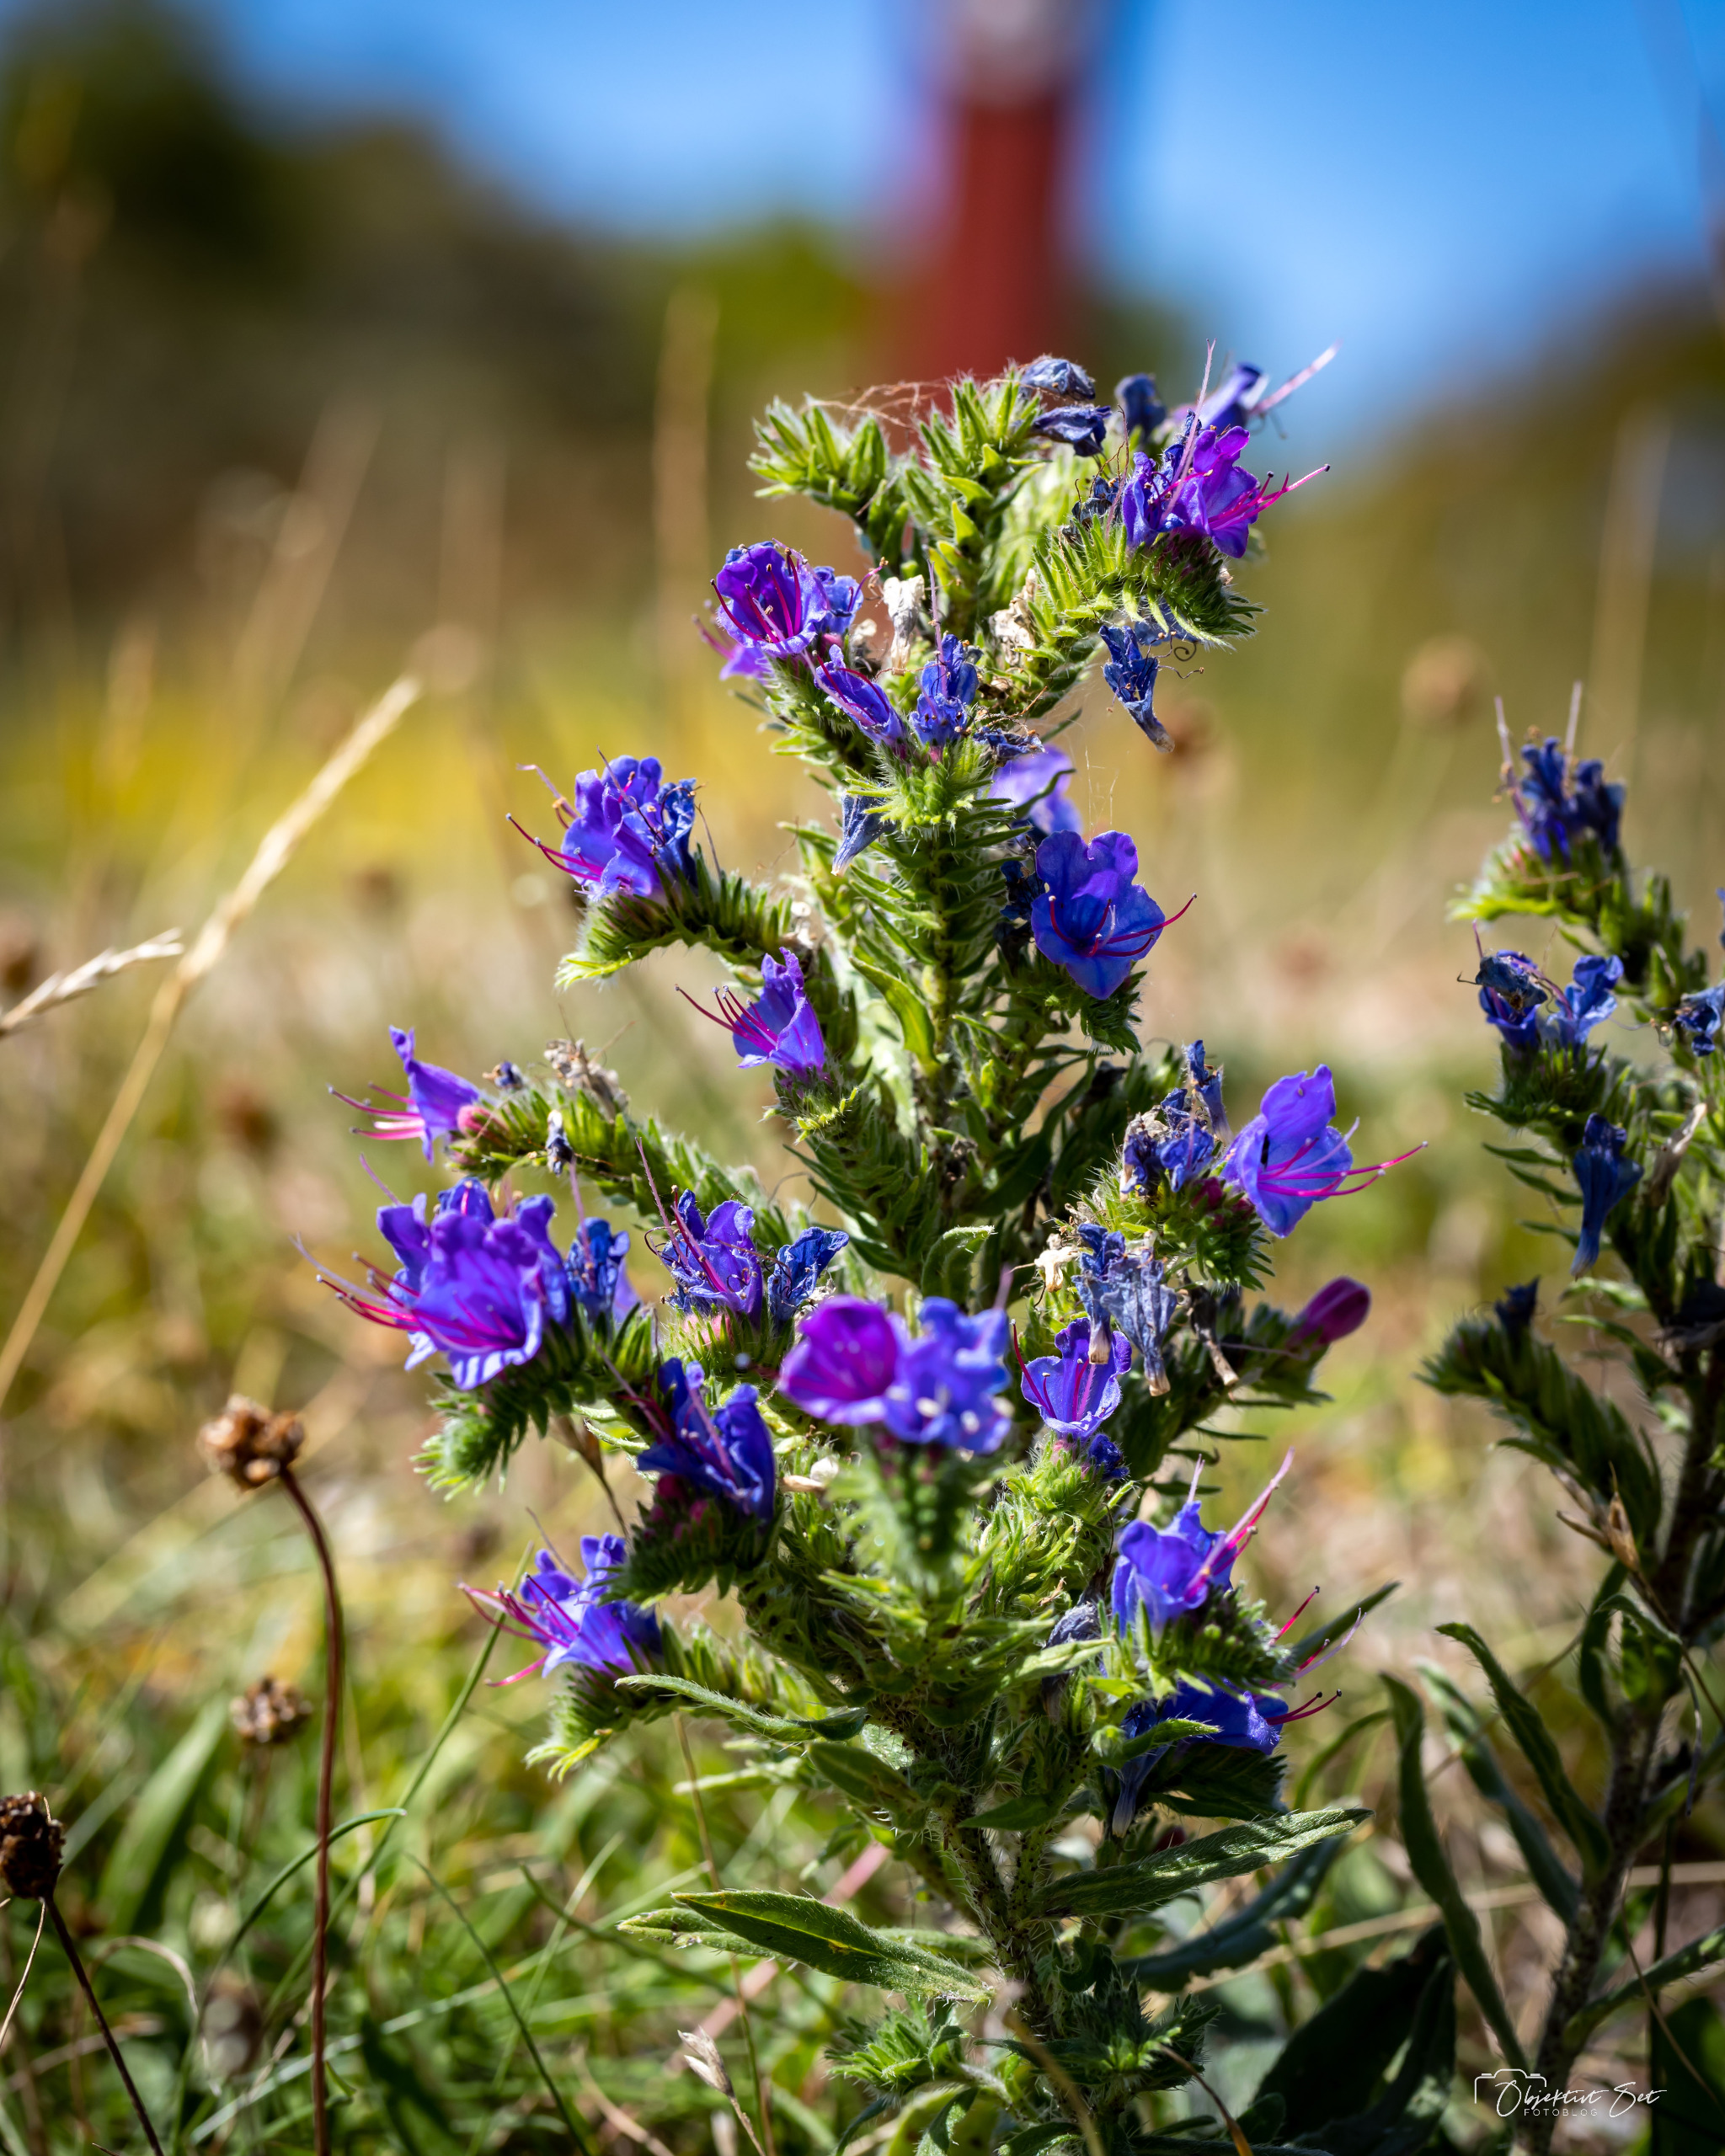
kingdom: Plantae
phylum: Tracheophyta
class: Magnoliopsida
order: Boraginales
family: Boraginaceae
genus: Echium
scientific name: Echium vulgare
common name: Slangehoved
